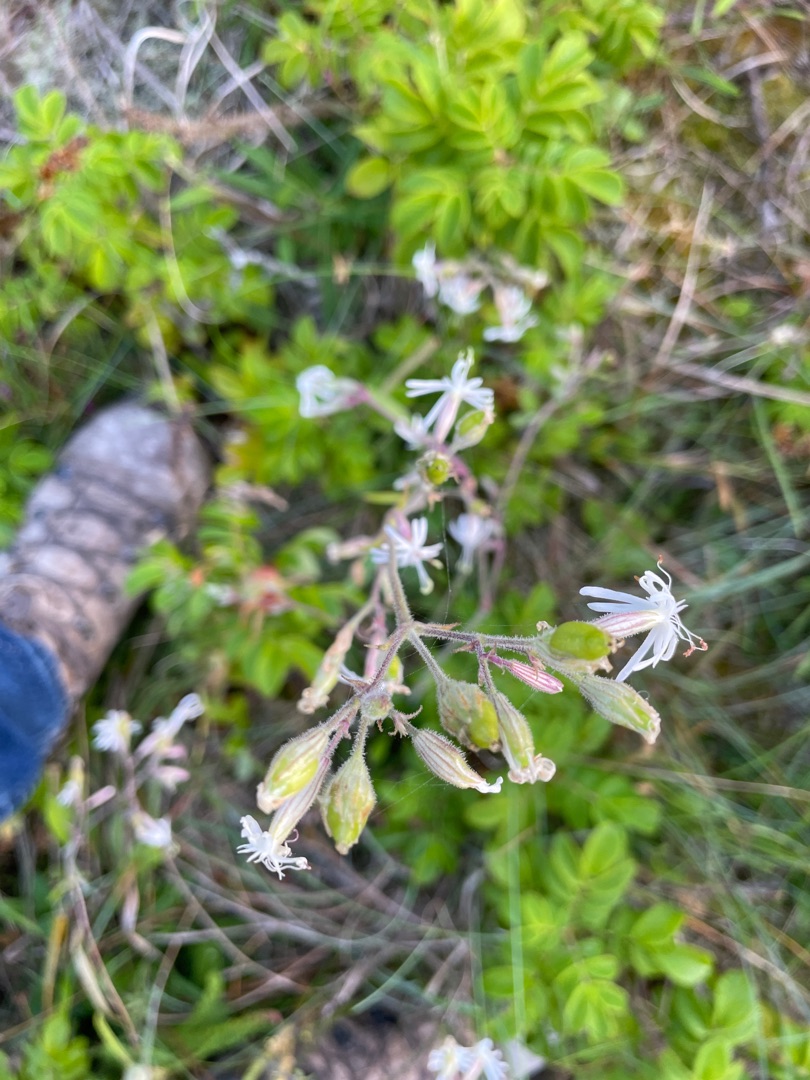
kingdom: Plantae
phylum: Tracheophyta
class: Magnoliopsida
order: Caryophyllales
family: Caryophyllaceae
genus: Silene
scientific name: Silene nutans
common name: Nikkende limurt
